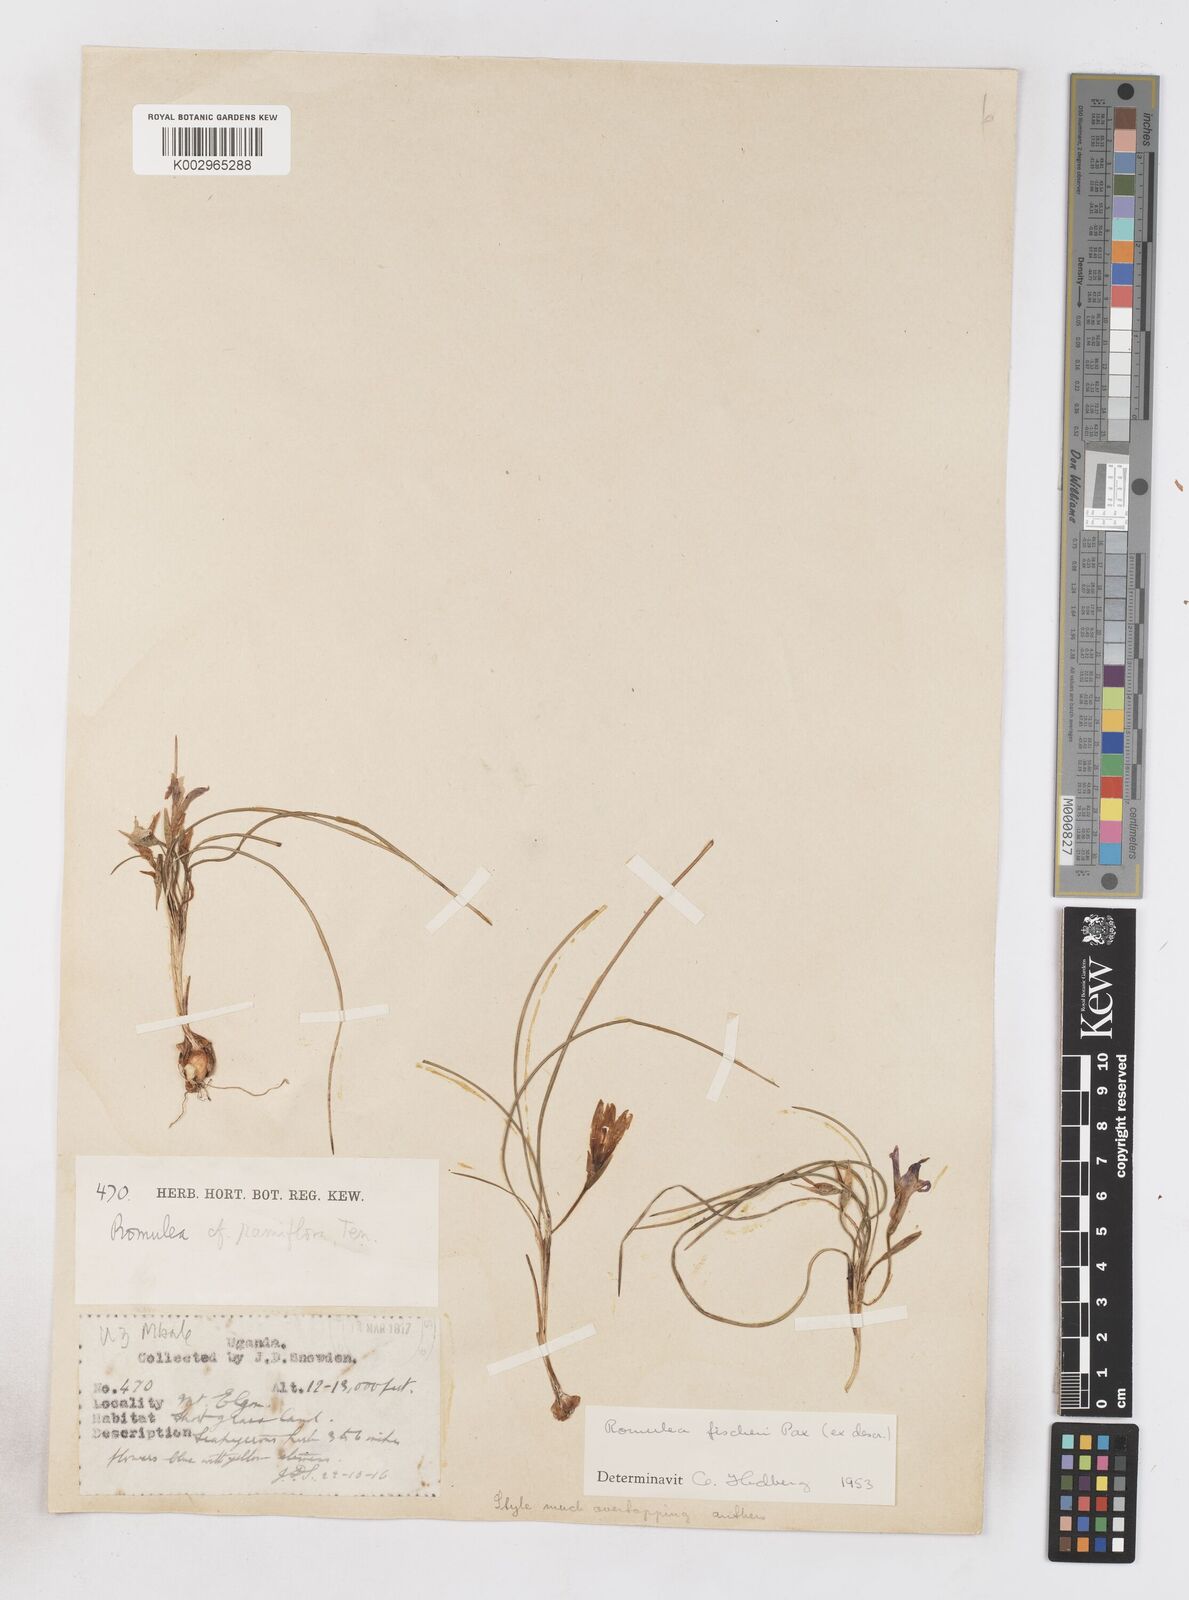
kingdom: Plantae
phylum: Tracheophyta
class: Liliopsida
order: Asparagales
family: Iridaceae
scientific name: Iridaceae
